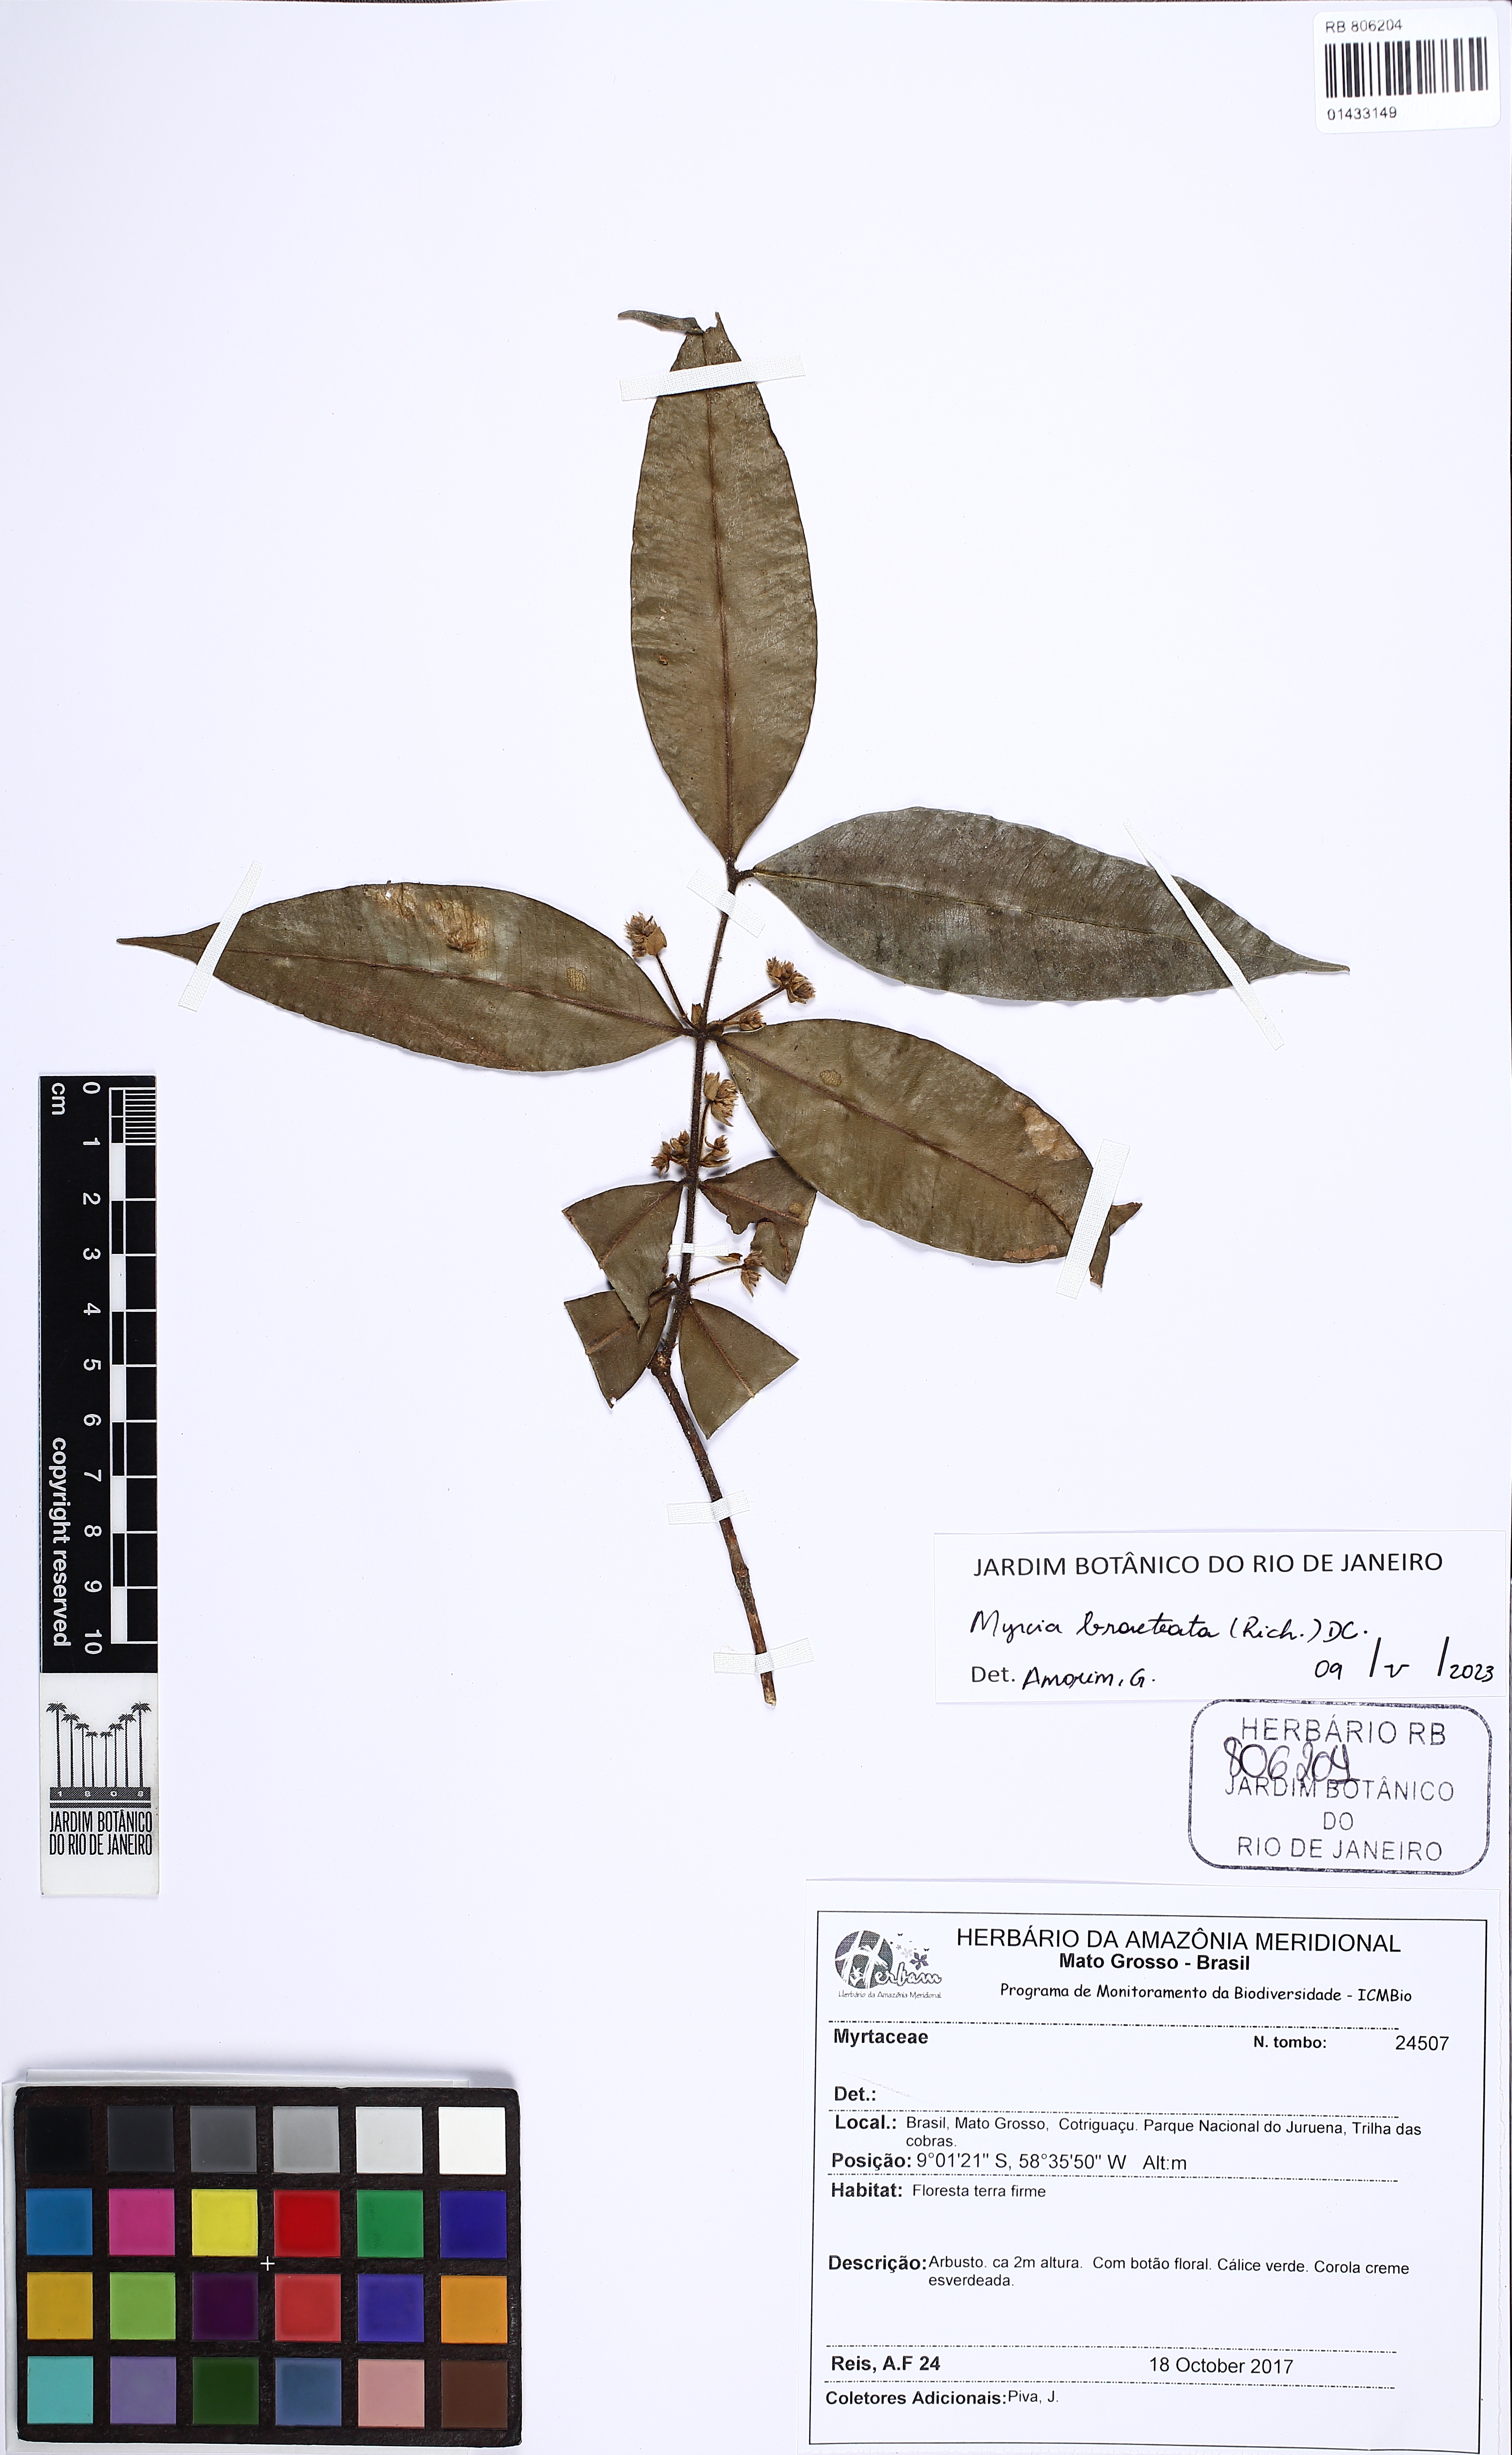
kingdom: Plantae
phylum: Tracheophyta
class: Magnoliopsida
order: Myrtales
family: Myrtaceae
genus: Myrcia
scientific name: Myrcia bracteata
